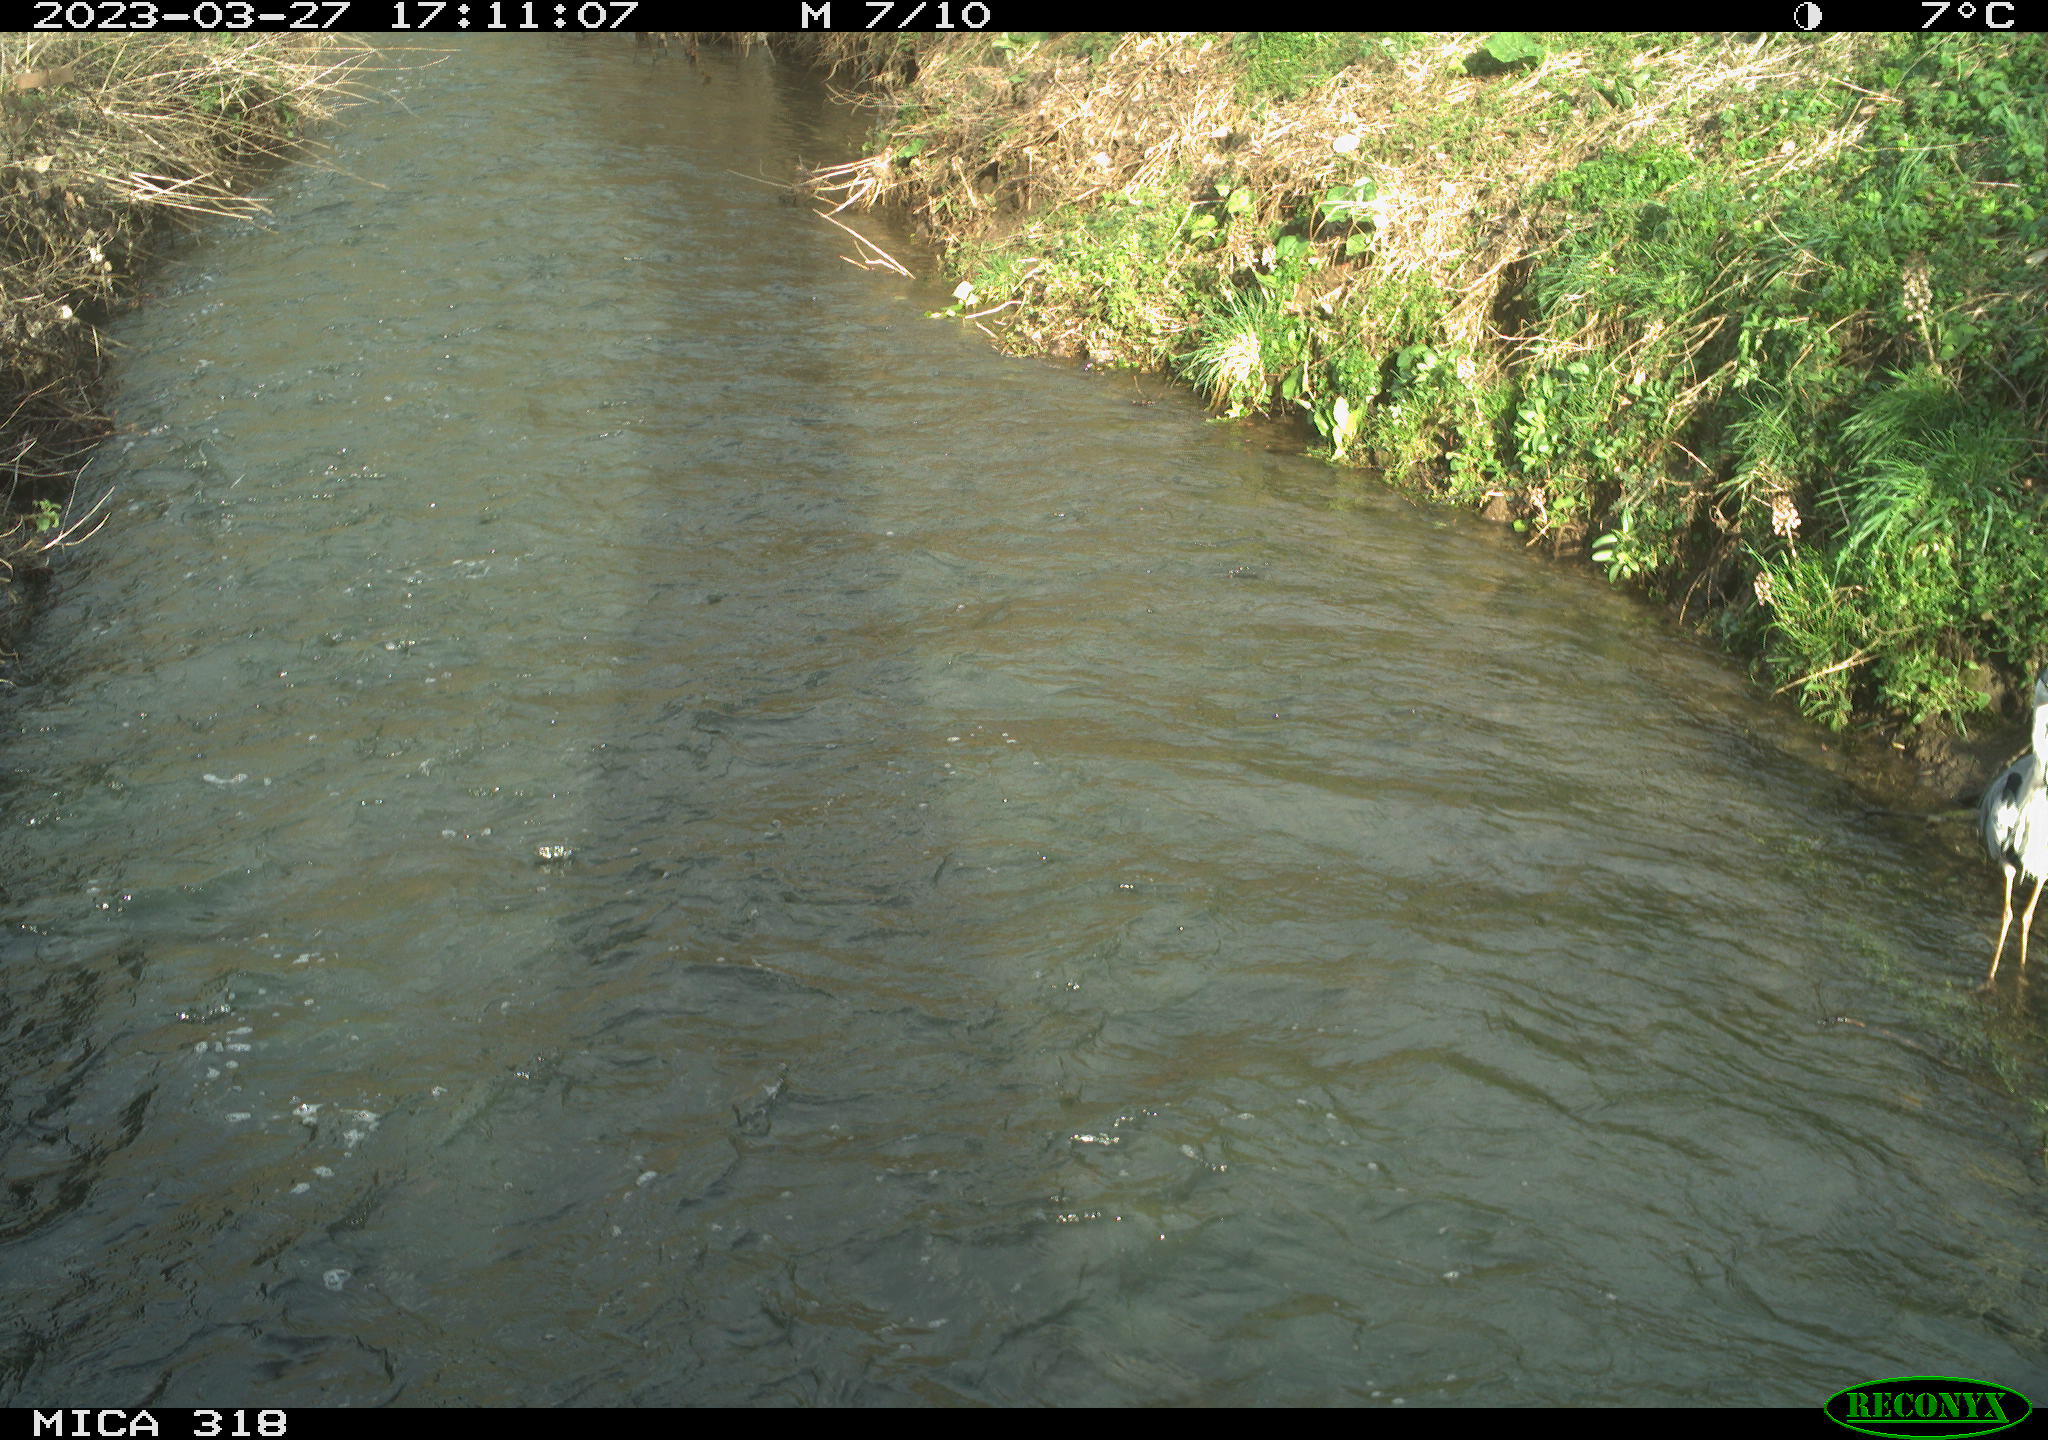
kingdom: Animalia
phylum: Chordata
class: Aves
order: Pelecaniformes
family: Ardeidae
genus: Ardea
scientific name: Ardea
